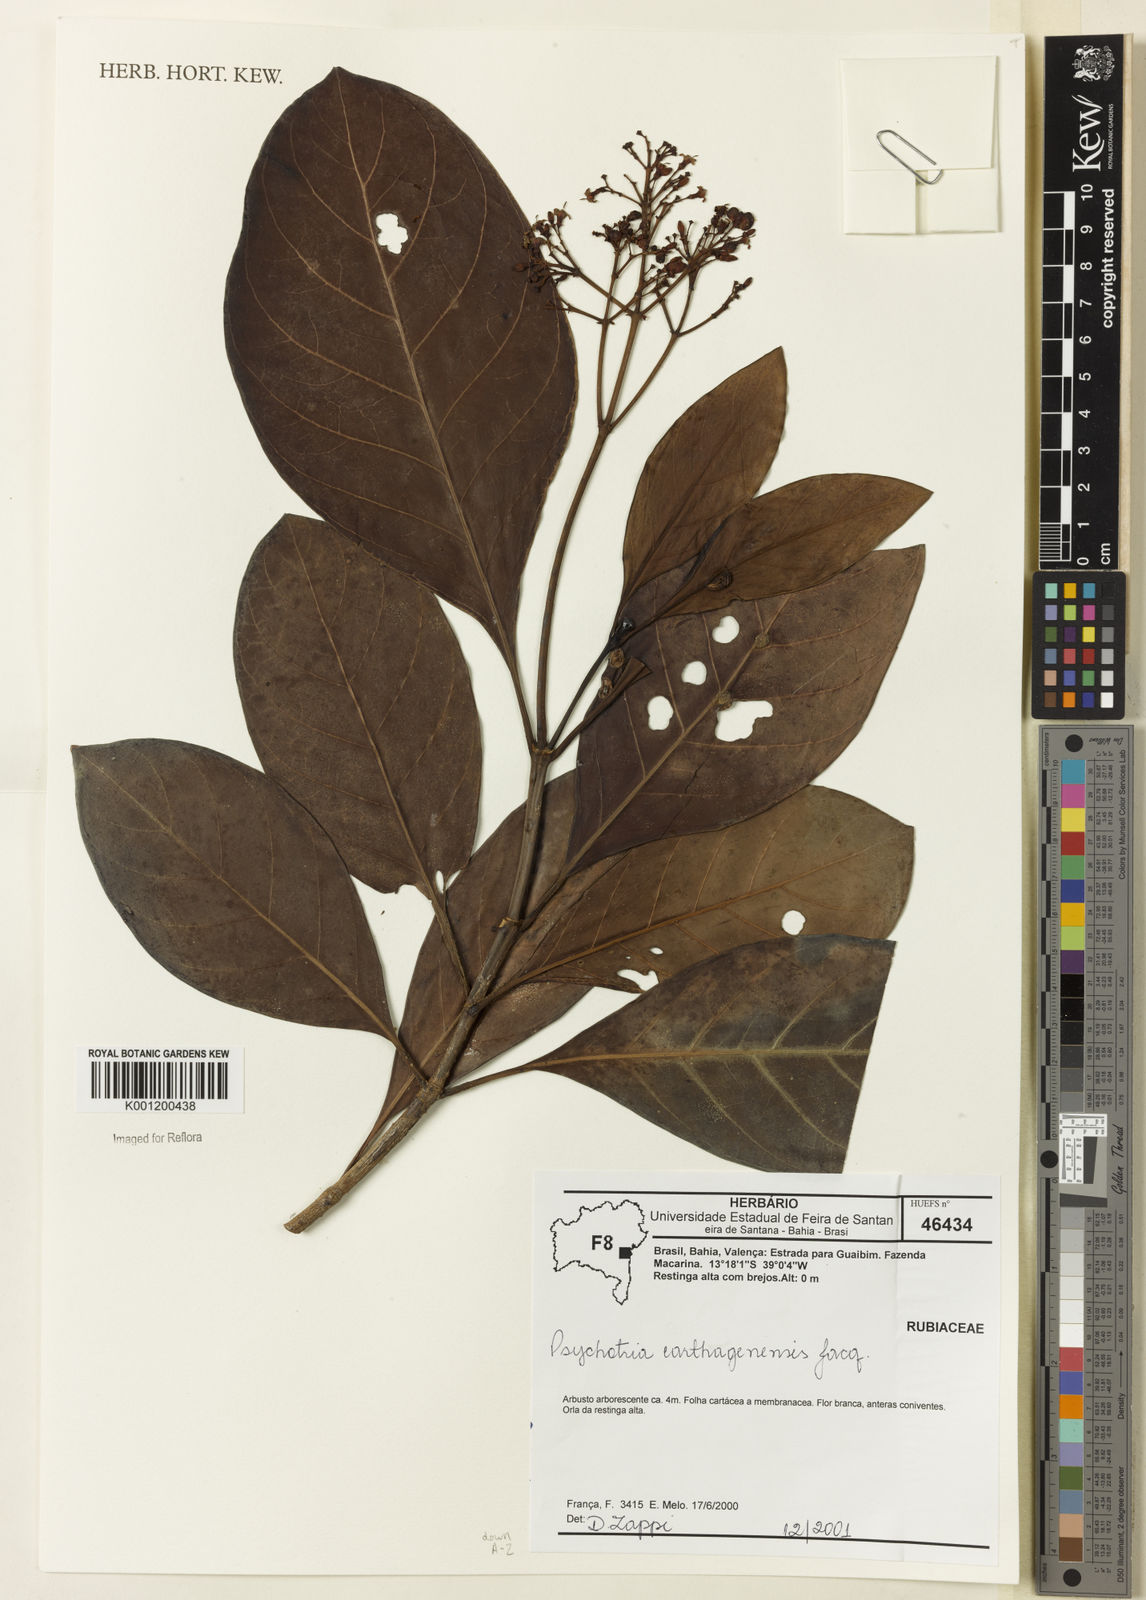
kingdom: Plantae
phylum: Tracheophyta
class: Magnoliopsida
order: Gentianales
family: Rubiaceae
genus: Psychotria
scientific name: Psychotria carthagenensis
